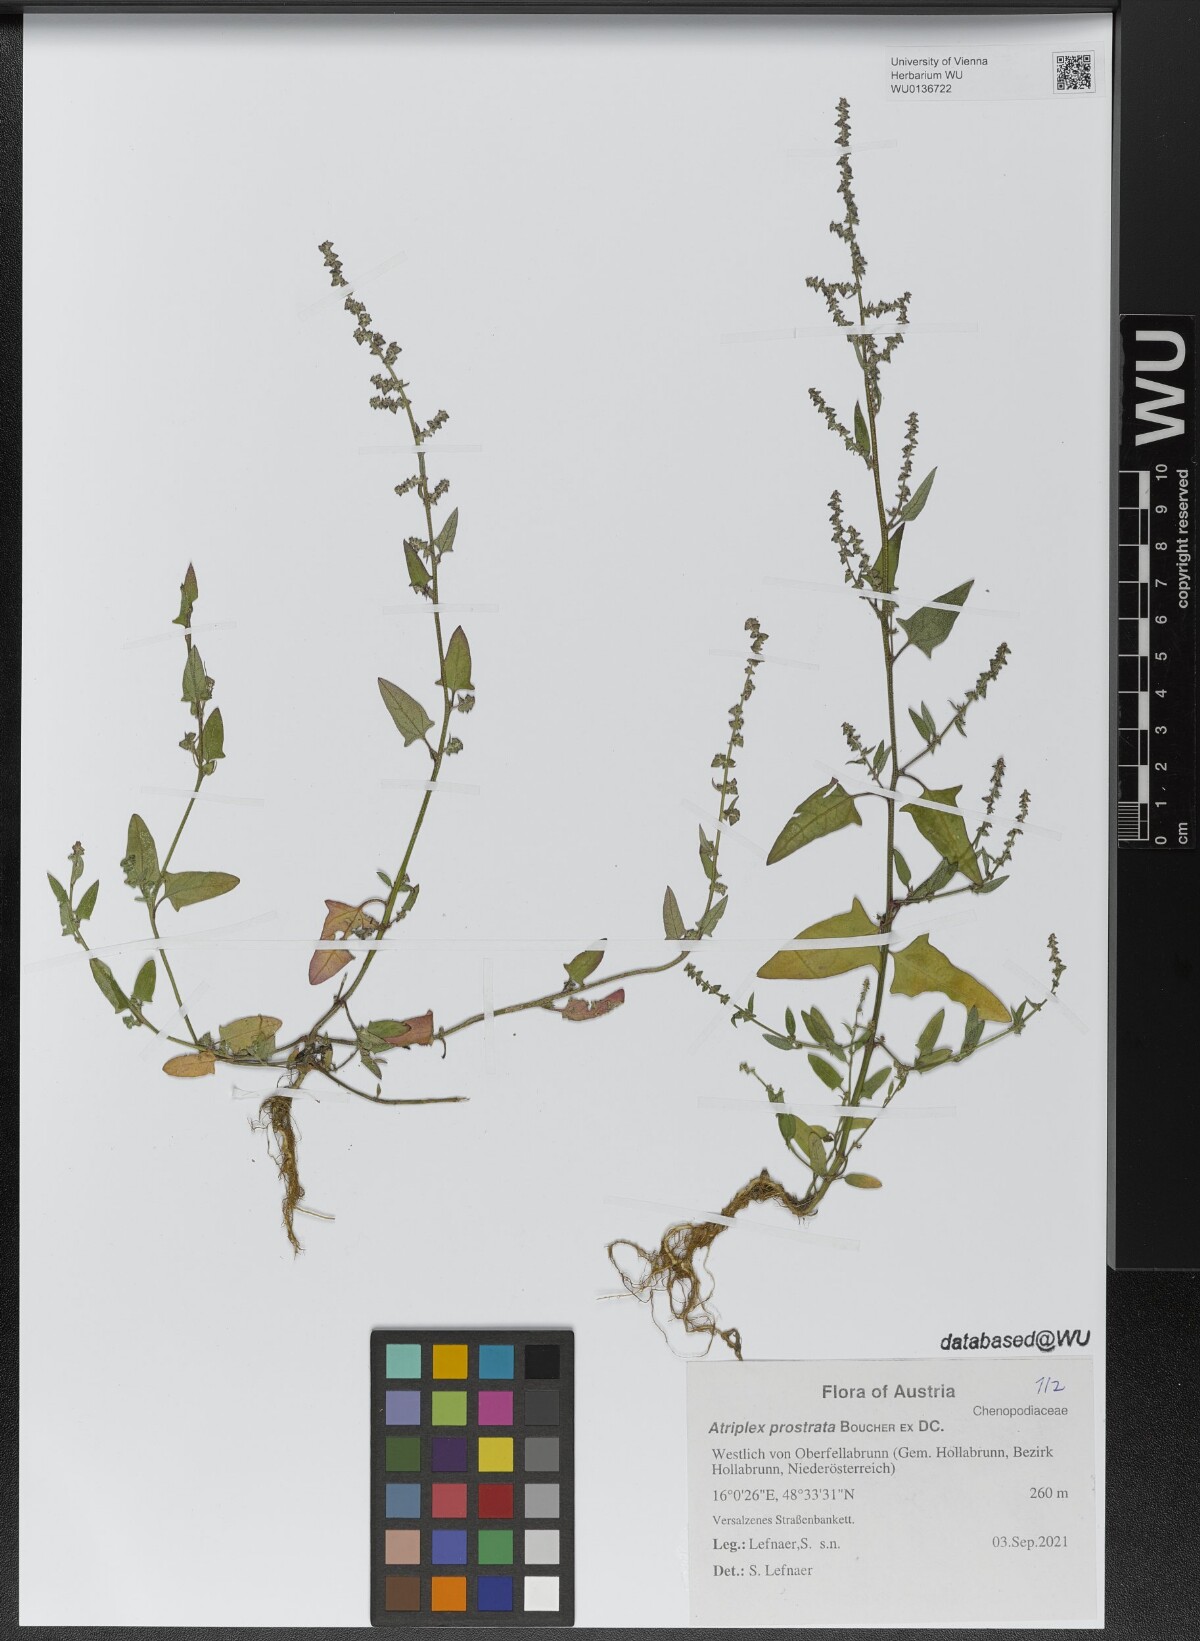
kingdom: Plantae
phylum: Tracheophyta
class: Magnoliopsida
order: Caryophyllales
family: Amaranthaceae
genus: Atriplex
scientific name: Atriplex prostrata
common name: Spear-leaved orache
